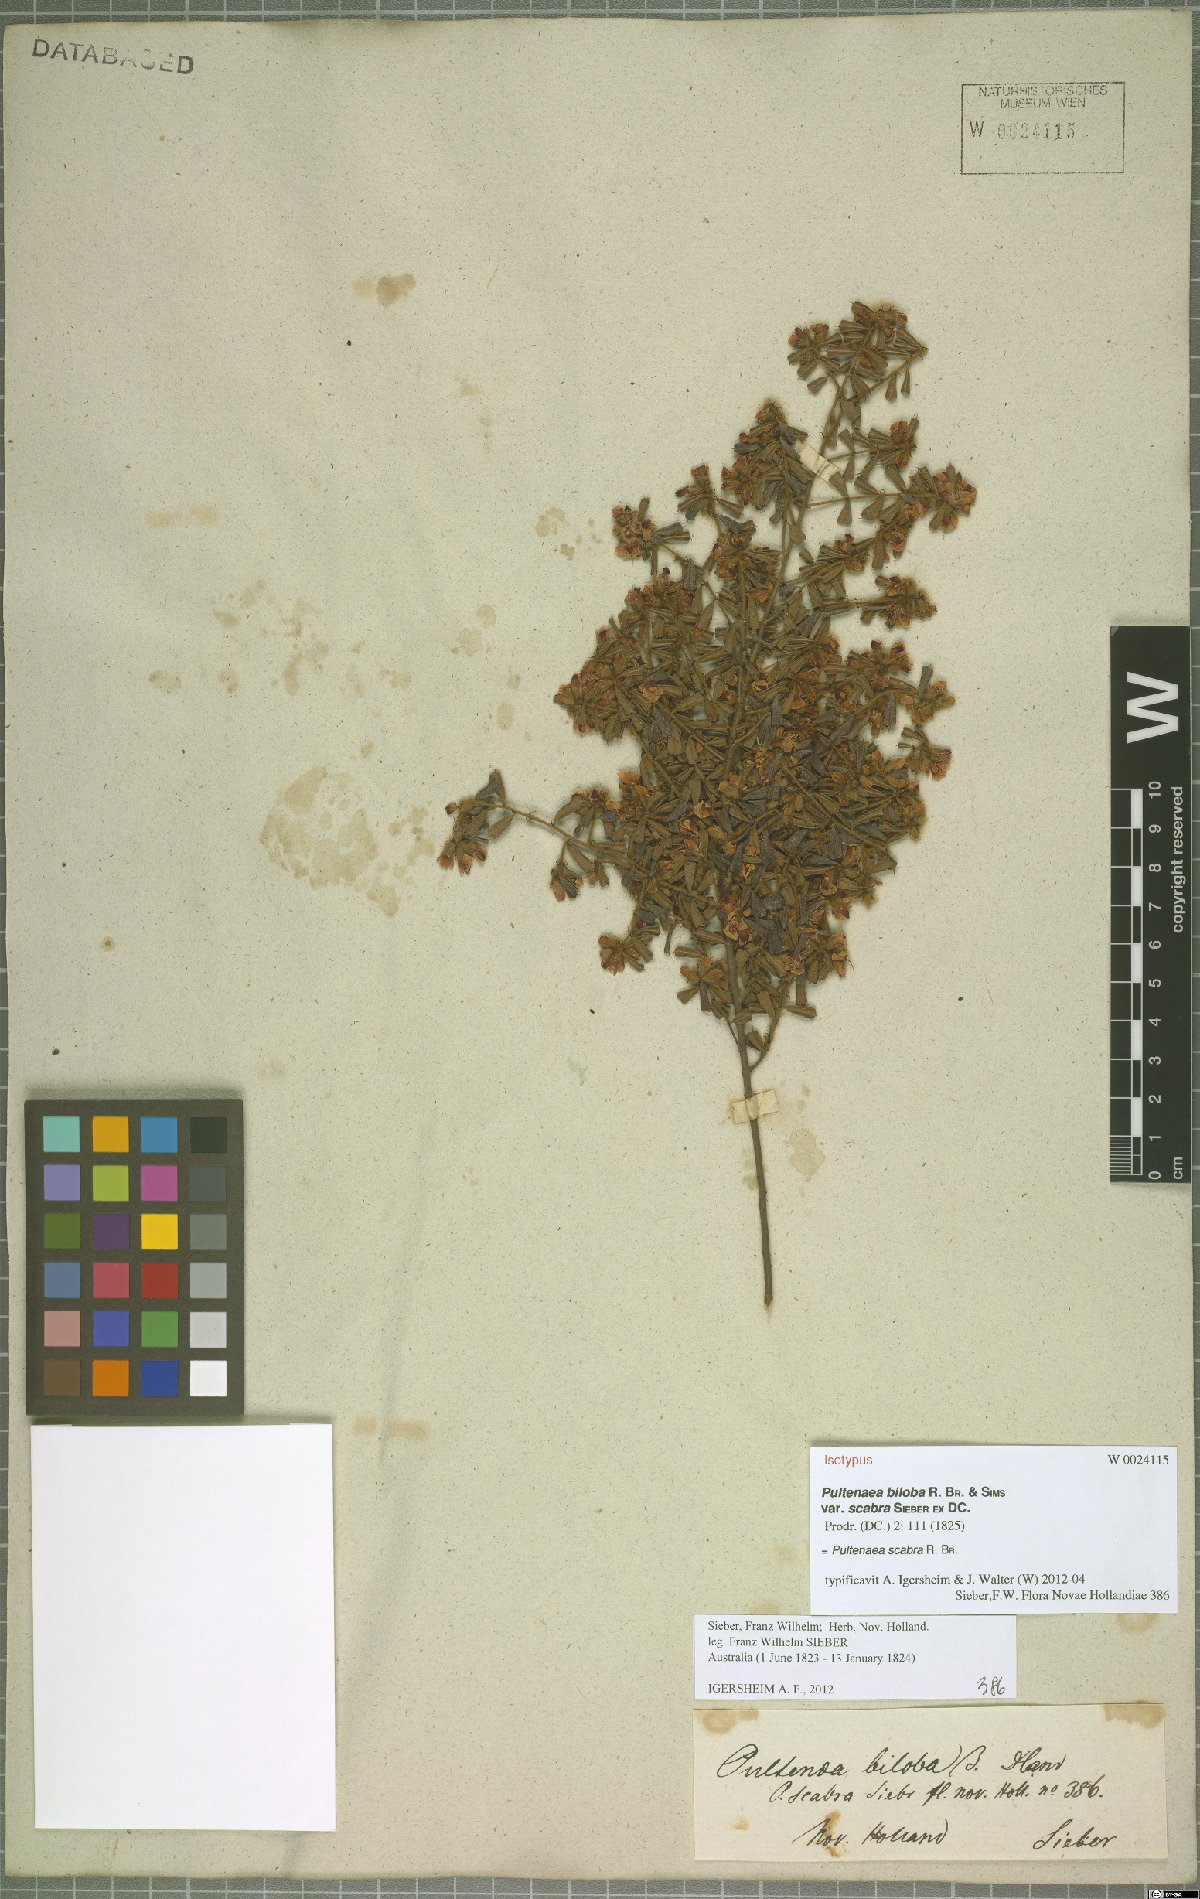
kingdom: Plantae
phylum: Tracheophyta
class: Magnoliopsida
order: Fabales
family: Fabaceae
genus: Pultenaea
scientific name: Pultenaea scabra
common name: Rough bush-pea
